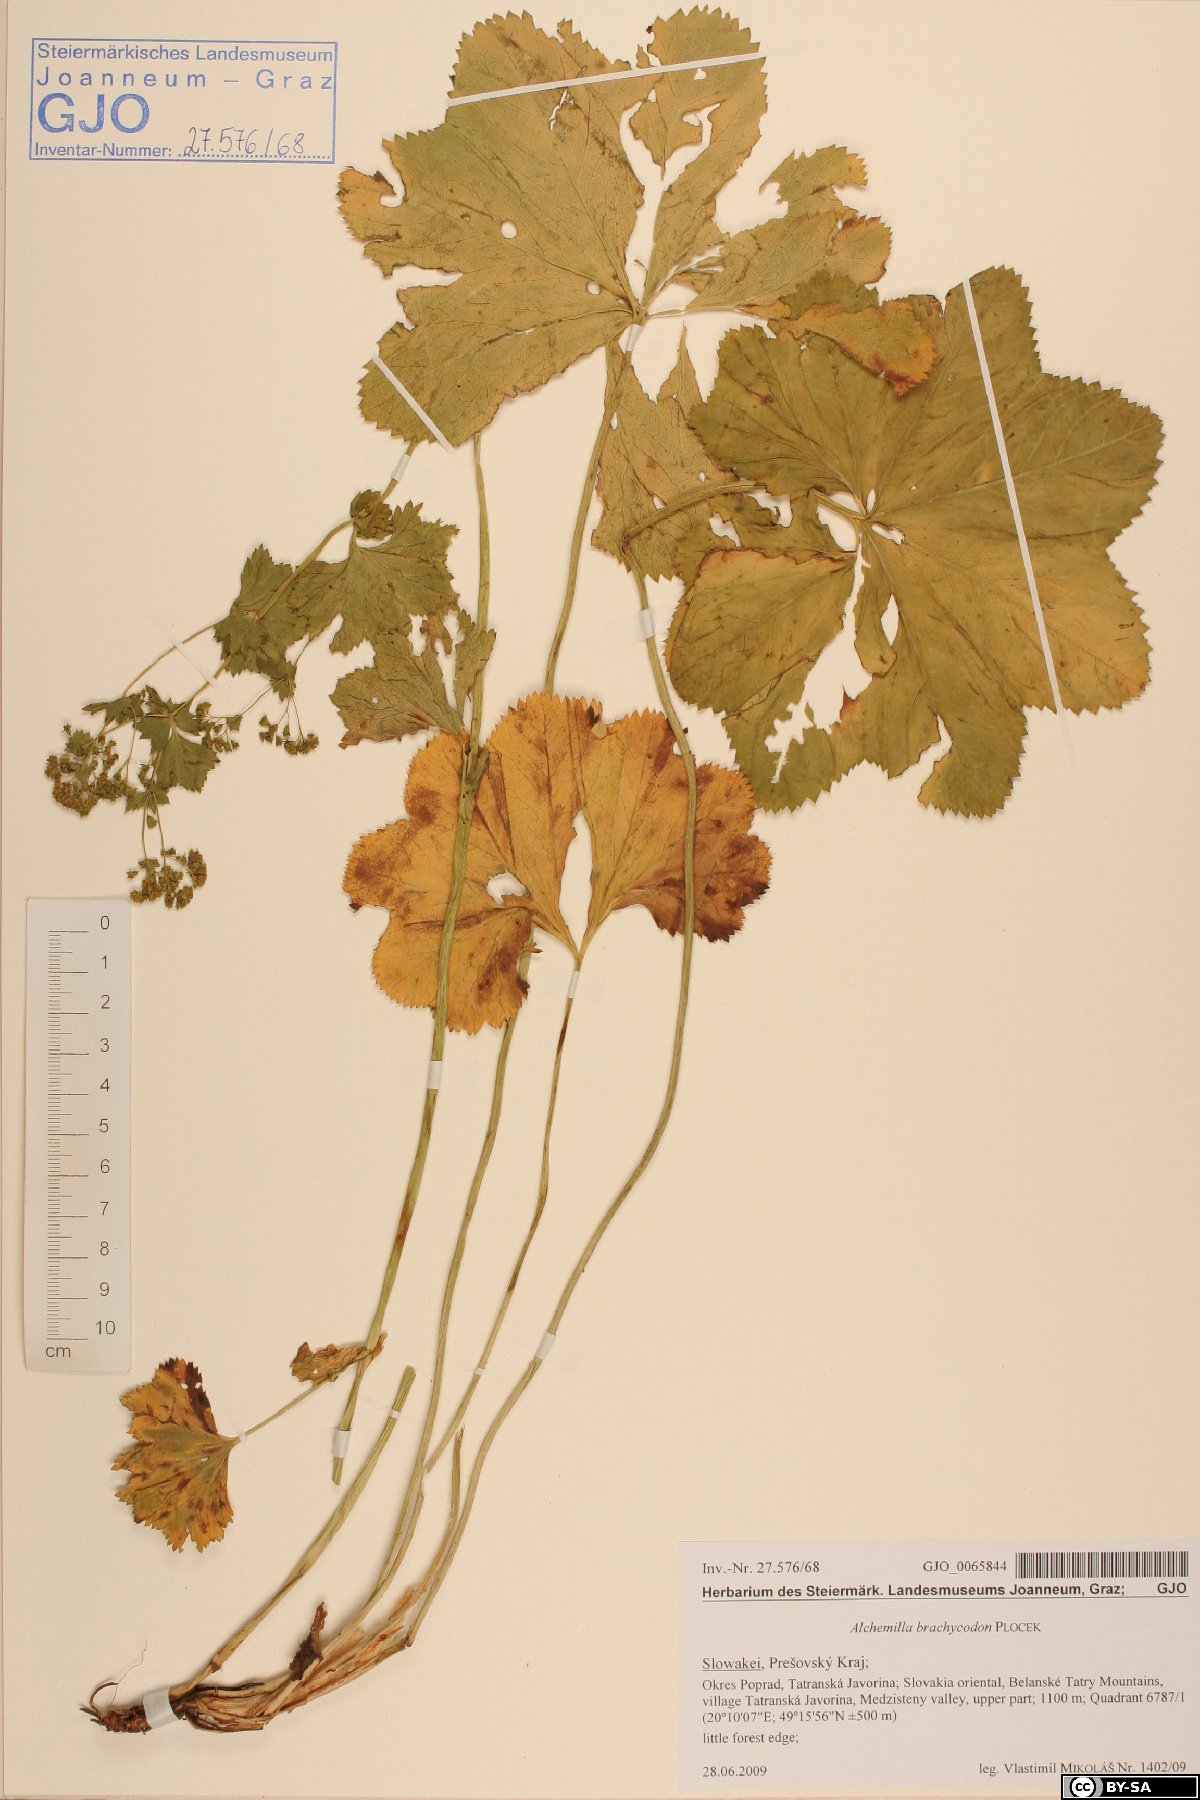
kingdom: Plantae
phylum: Tracheophyta
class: Magnoliopsida
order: Rosales
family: Rosaceae
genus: Alchemilla
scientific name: Alchemilla brachycodon
